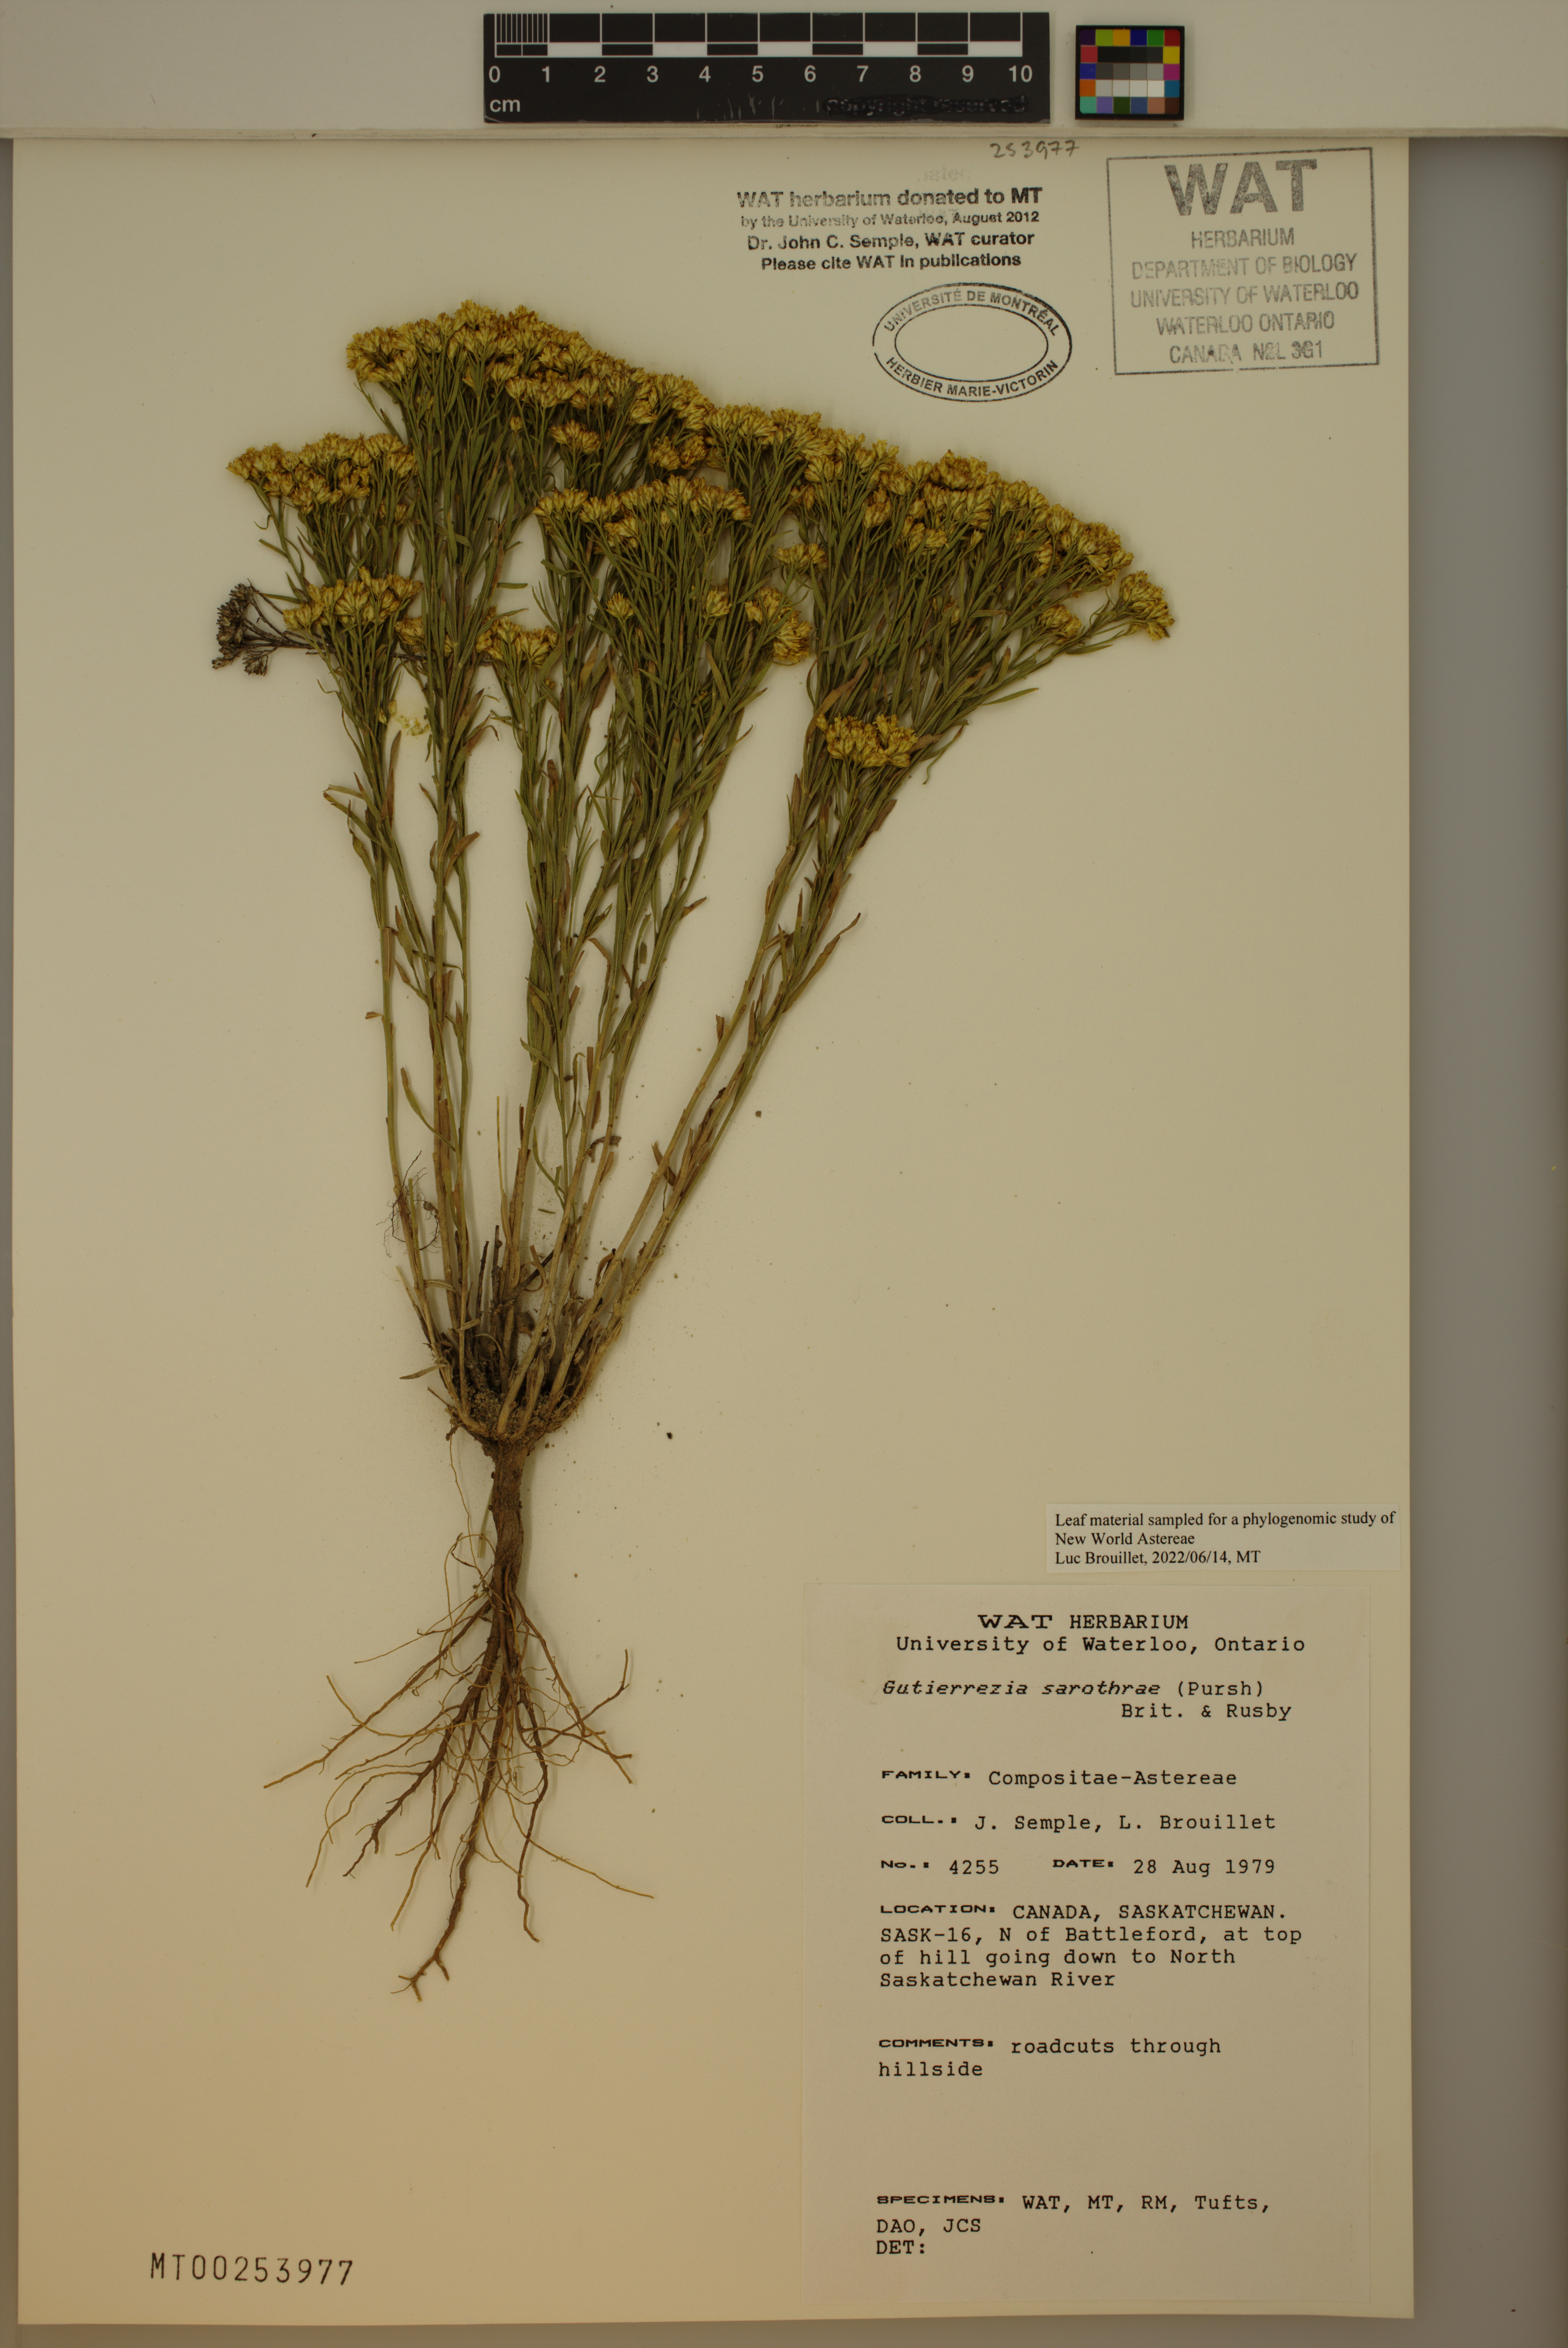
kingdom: Plantae
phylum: Tracheophyta
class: Magnoliopsida
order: Asterales
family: Asteraceae
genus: Gutierrezia
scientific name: Gutierrezia sarothrae
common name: Broom snakeweed
